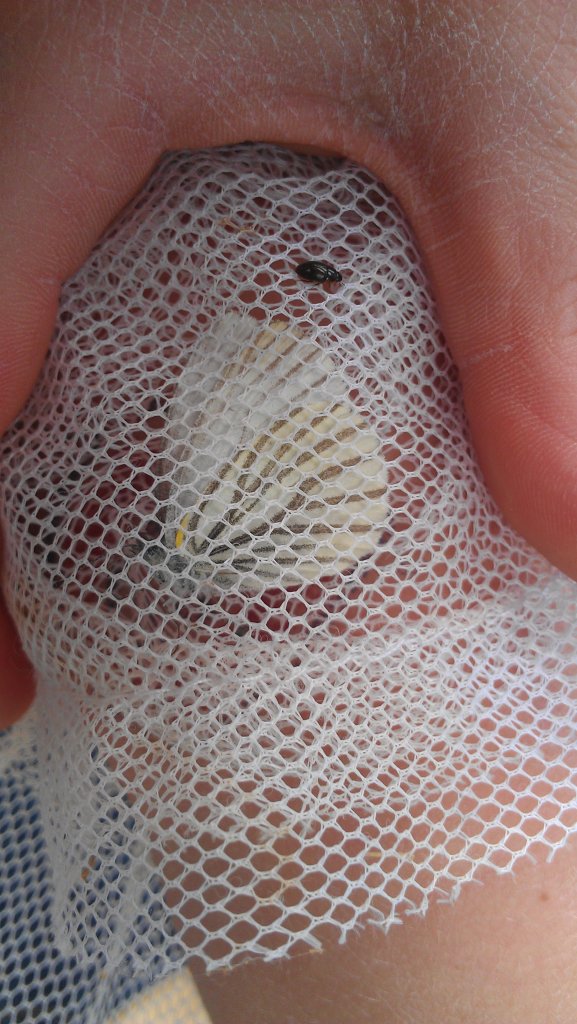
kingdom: Animalia
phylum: Arthropoda
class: Insecta
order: Lepidoptera
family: Pieridae
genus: Pieris
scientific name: Pieris oleracea
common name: Mustard White
